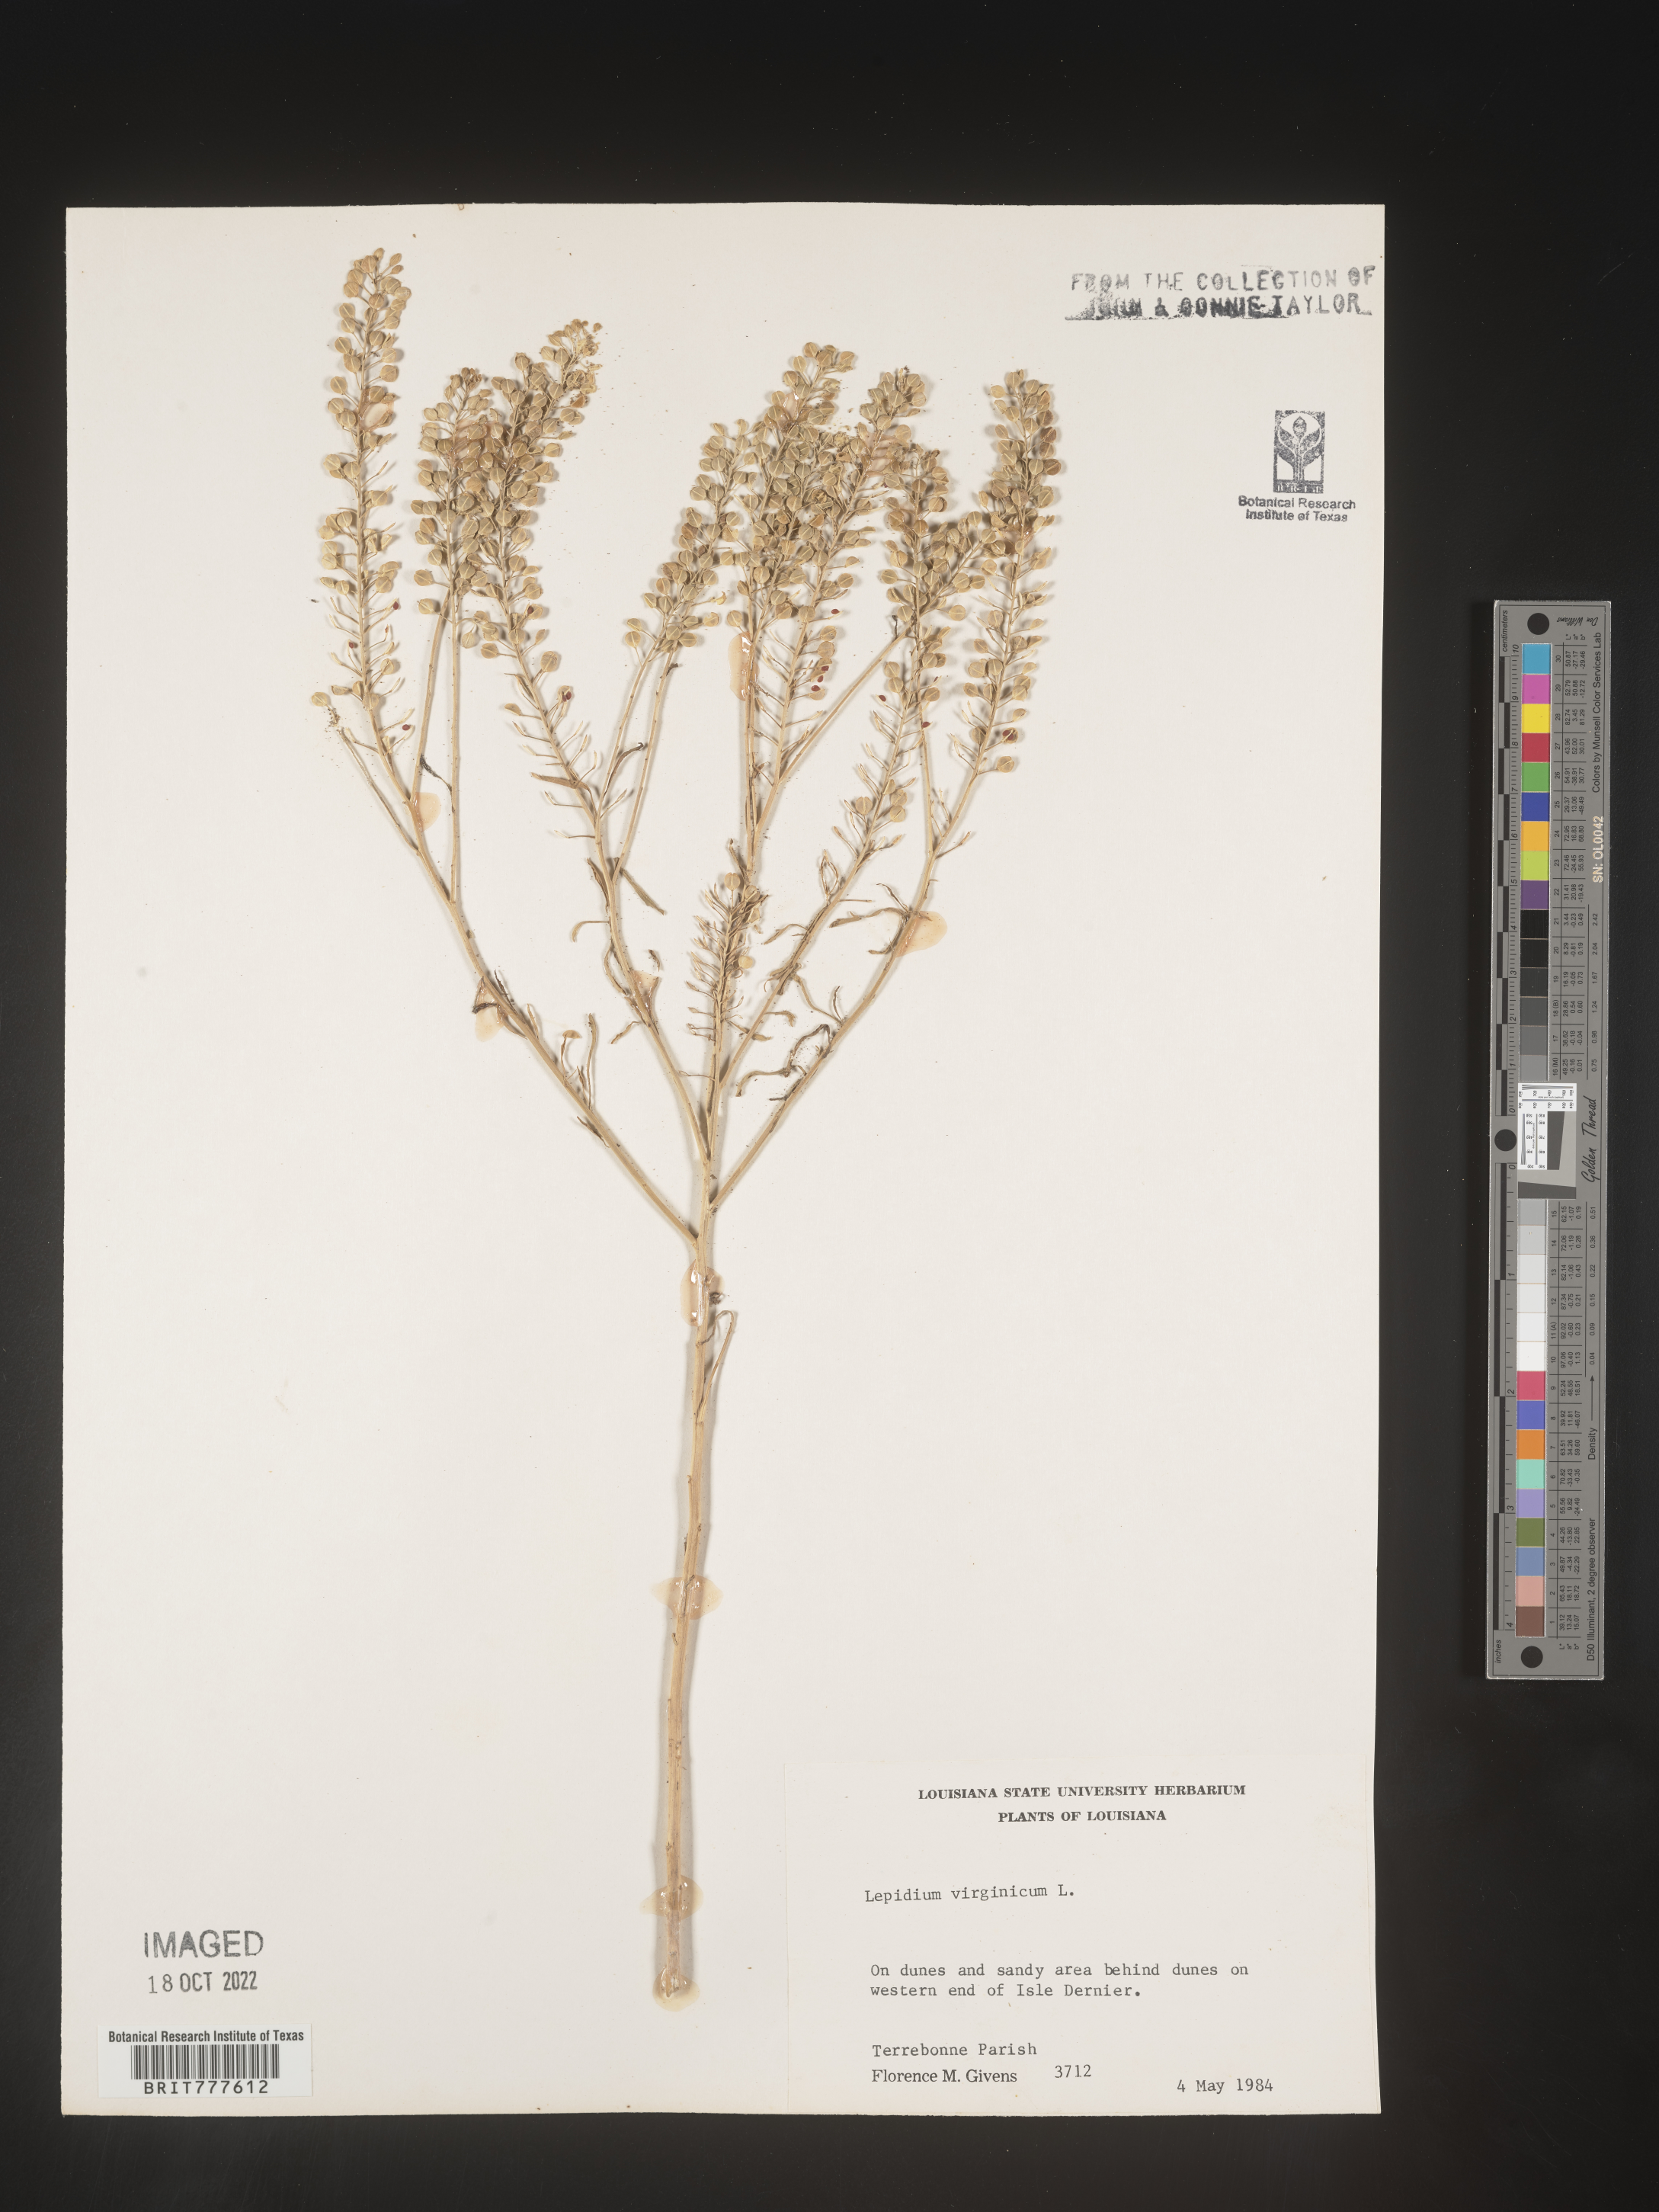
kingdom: Plantae
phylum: Tracheophyta
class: Magnoliopsida
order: Brassicales
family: Brassicaceae
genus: Lepidium
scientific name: Lepidium virginicum
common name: Least pepperwort
